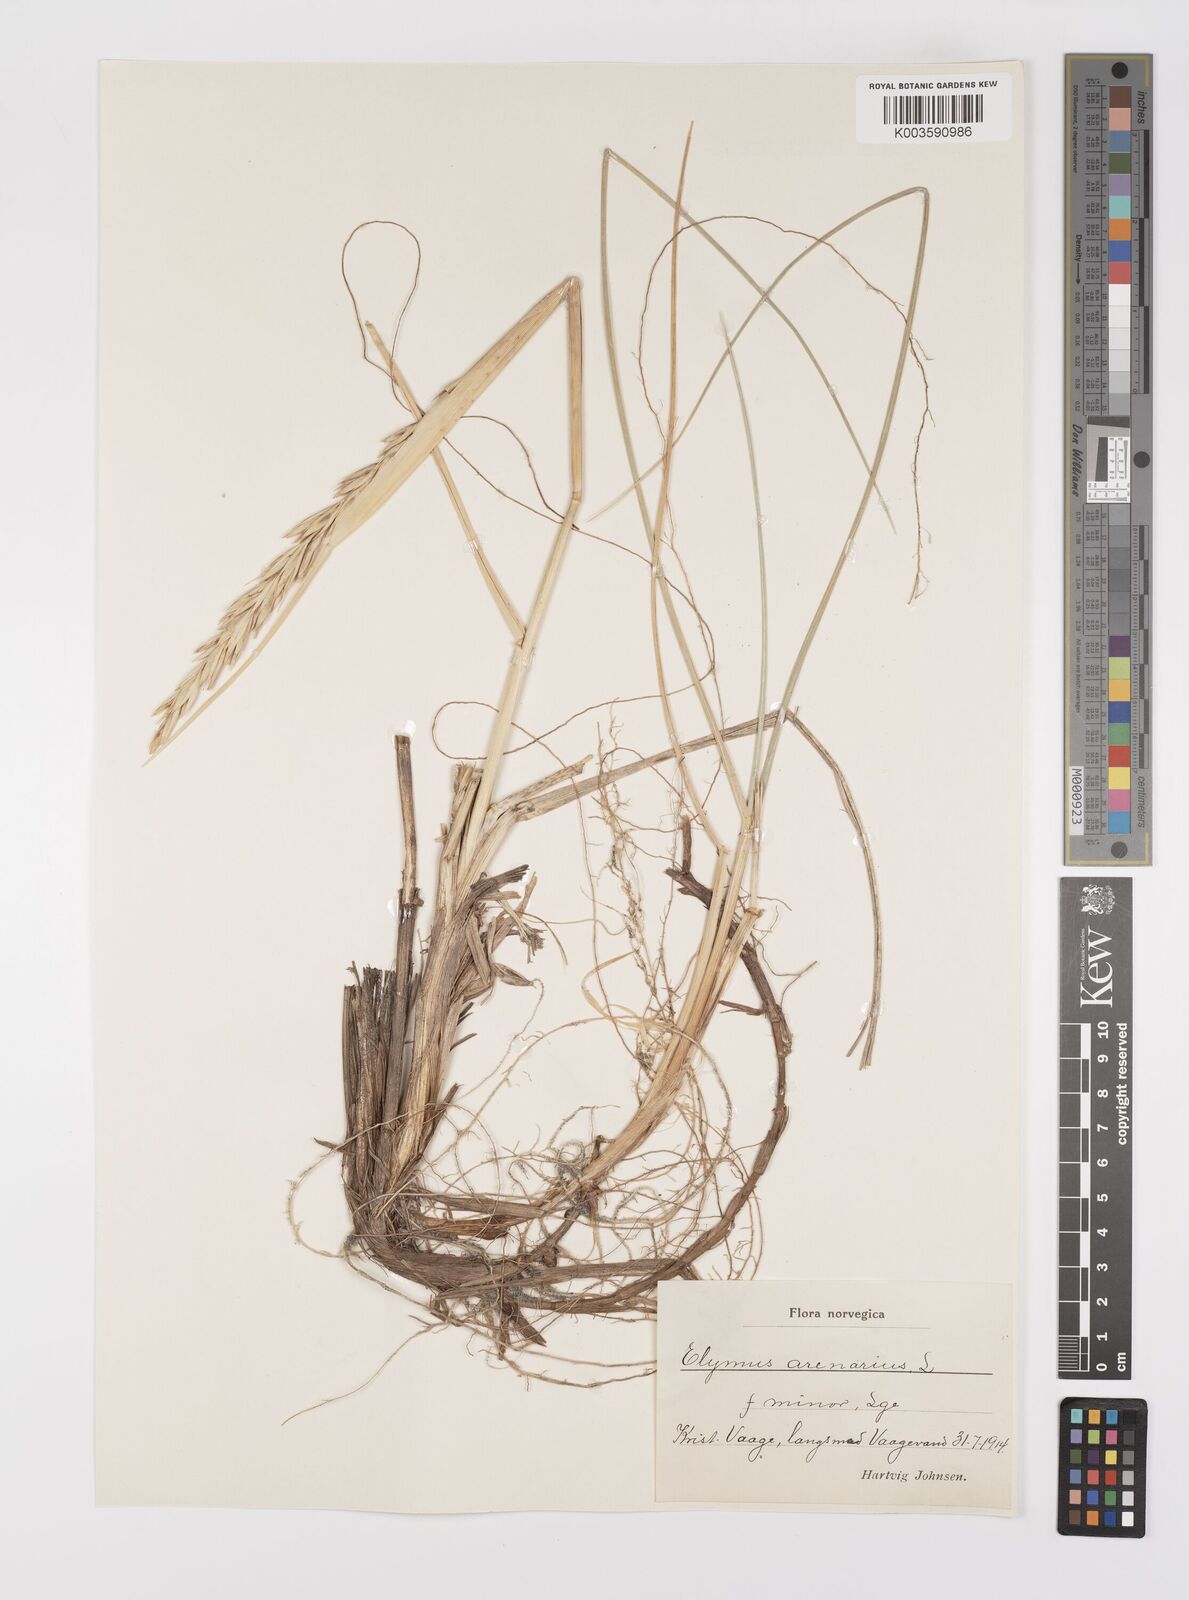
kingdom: Plantae
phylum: Tracheophyta
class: Liliopsida
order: Poales
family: Poaceae
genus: Leymus
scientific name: Leymus arenarius
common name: Lyme-grass
